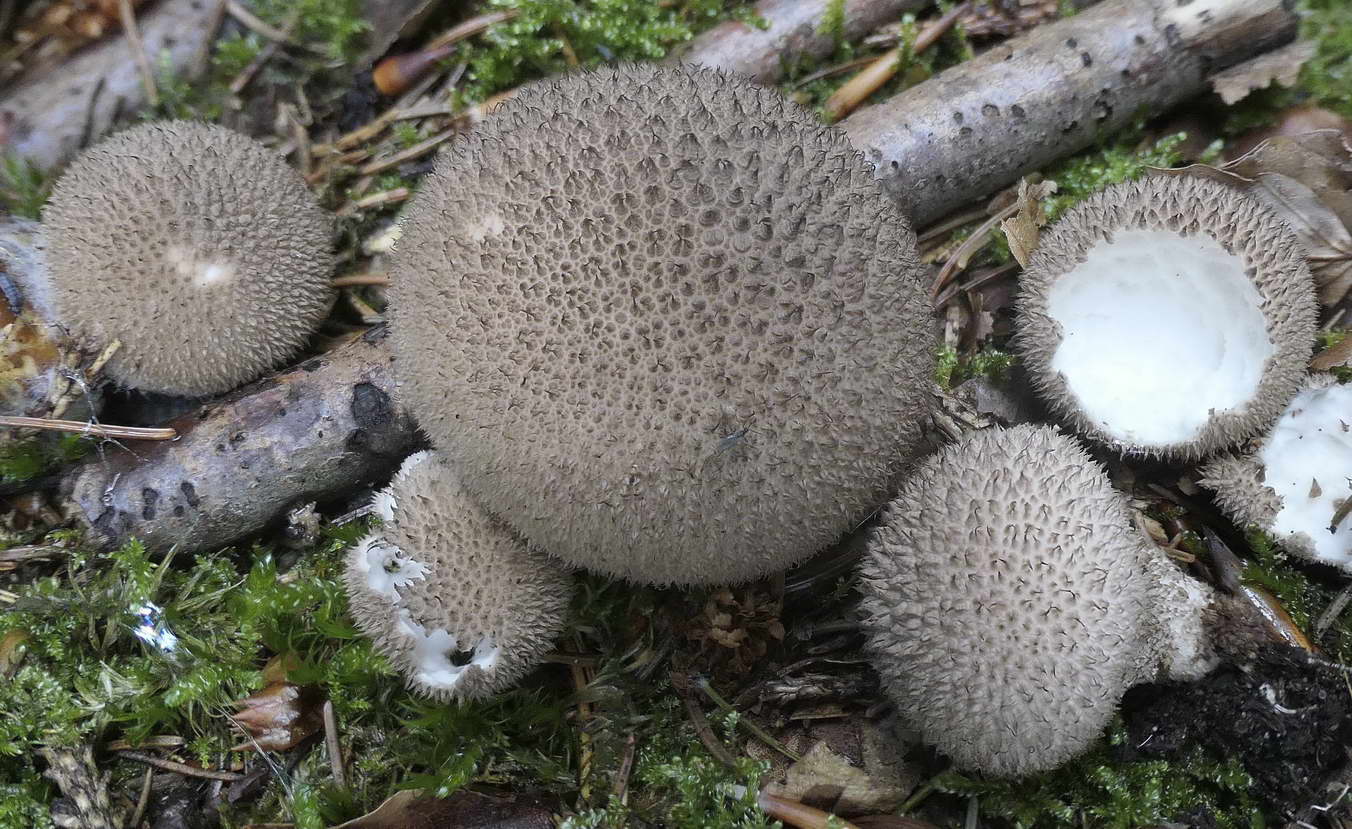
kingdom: Fungi
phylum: Basidiomycota
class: Agaricomycetes
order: Agaricales
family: Agaricaceae
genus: Lycoperdon
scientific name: Lycoperdon
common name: støvbold
